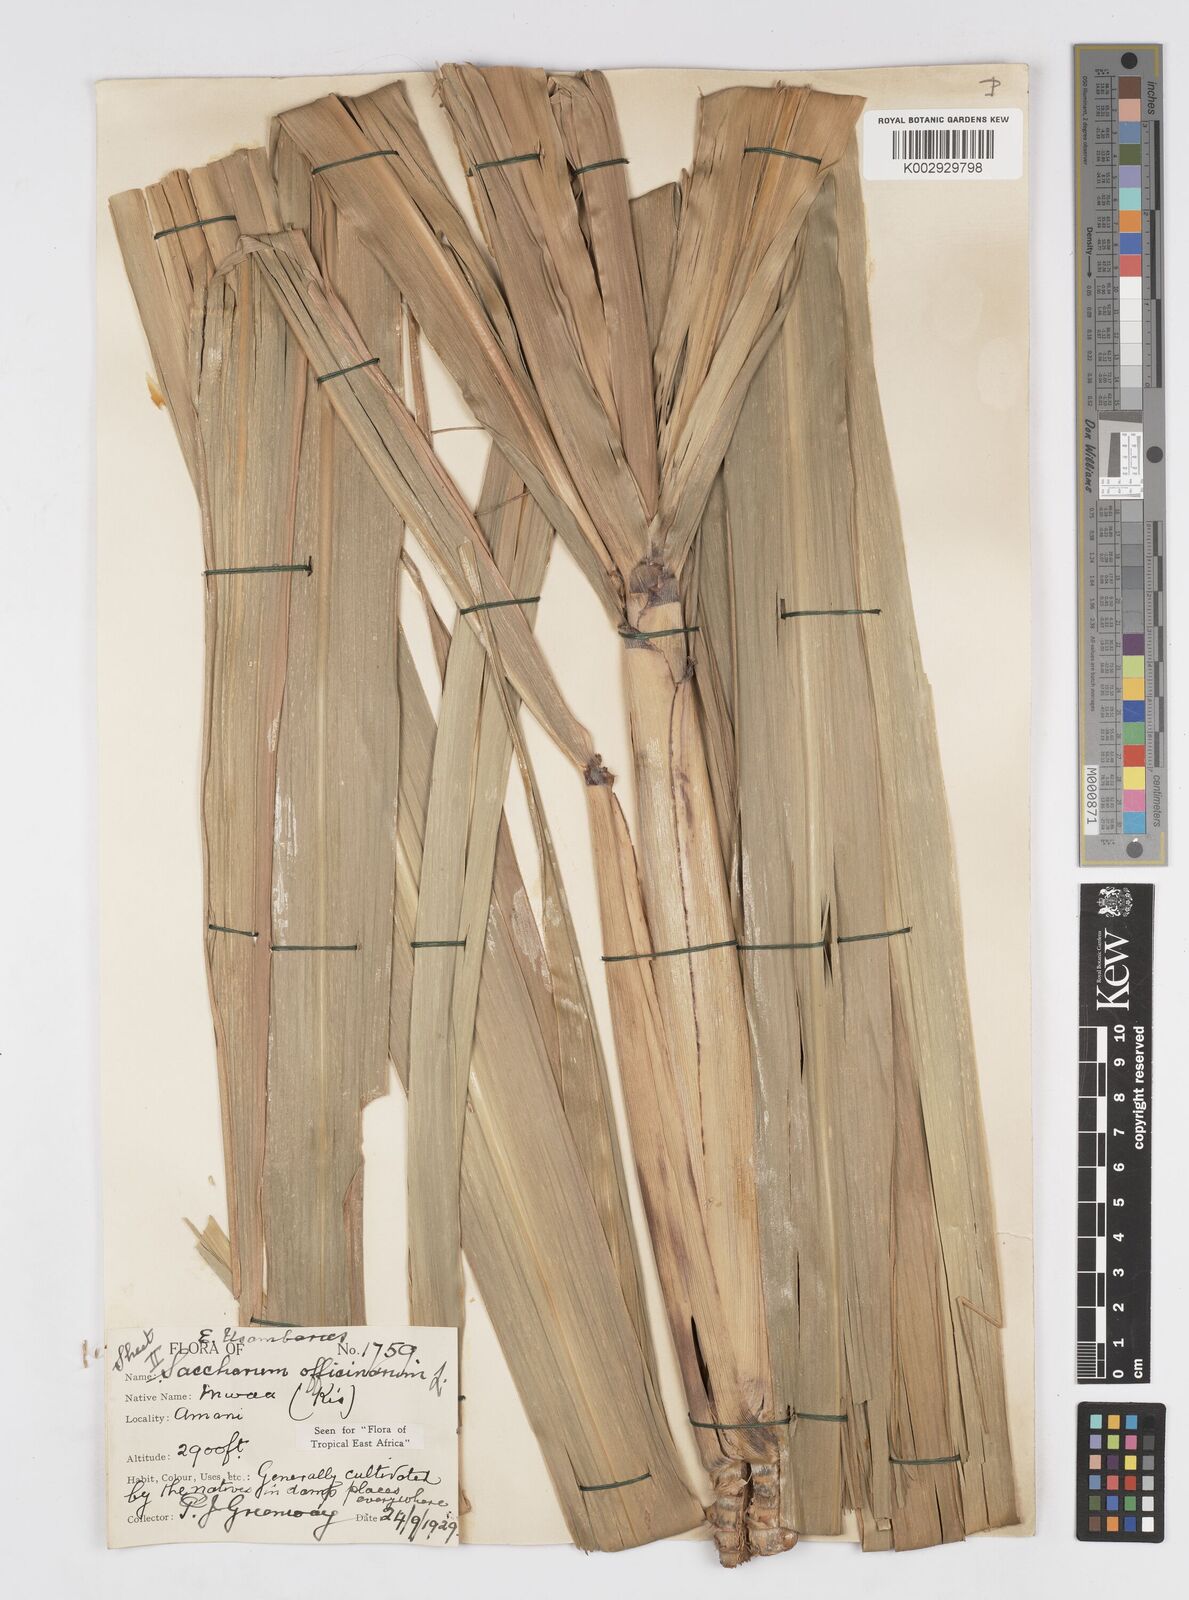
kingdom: Plantae
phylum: Tracheophyta
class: Liliopsida
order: Poales
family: Poaceae
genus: Saccharum
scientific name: Saccharum officinarum
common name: Sugarcane
